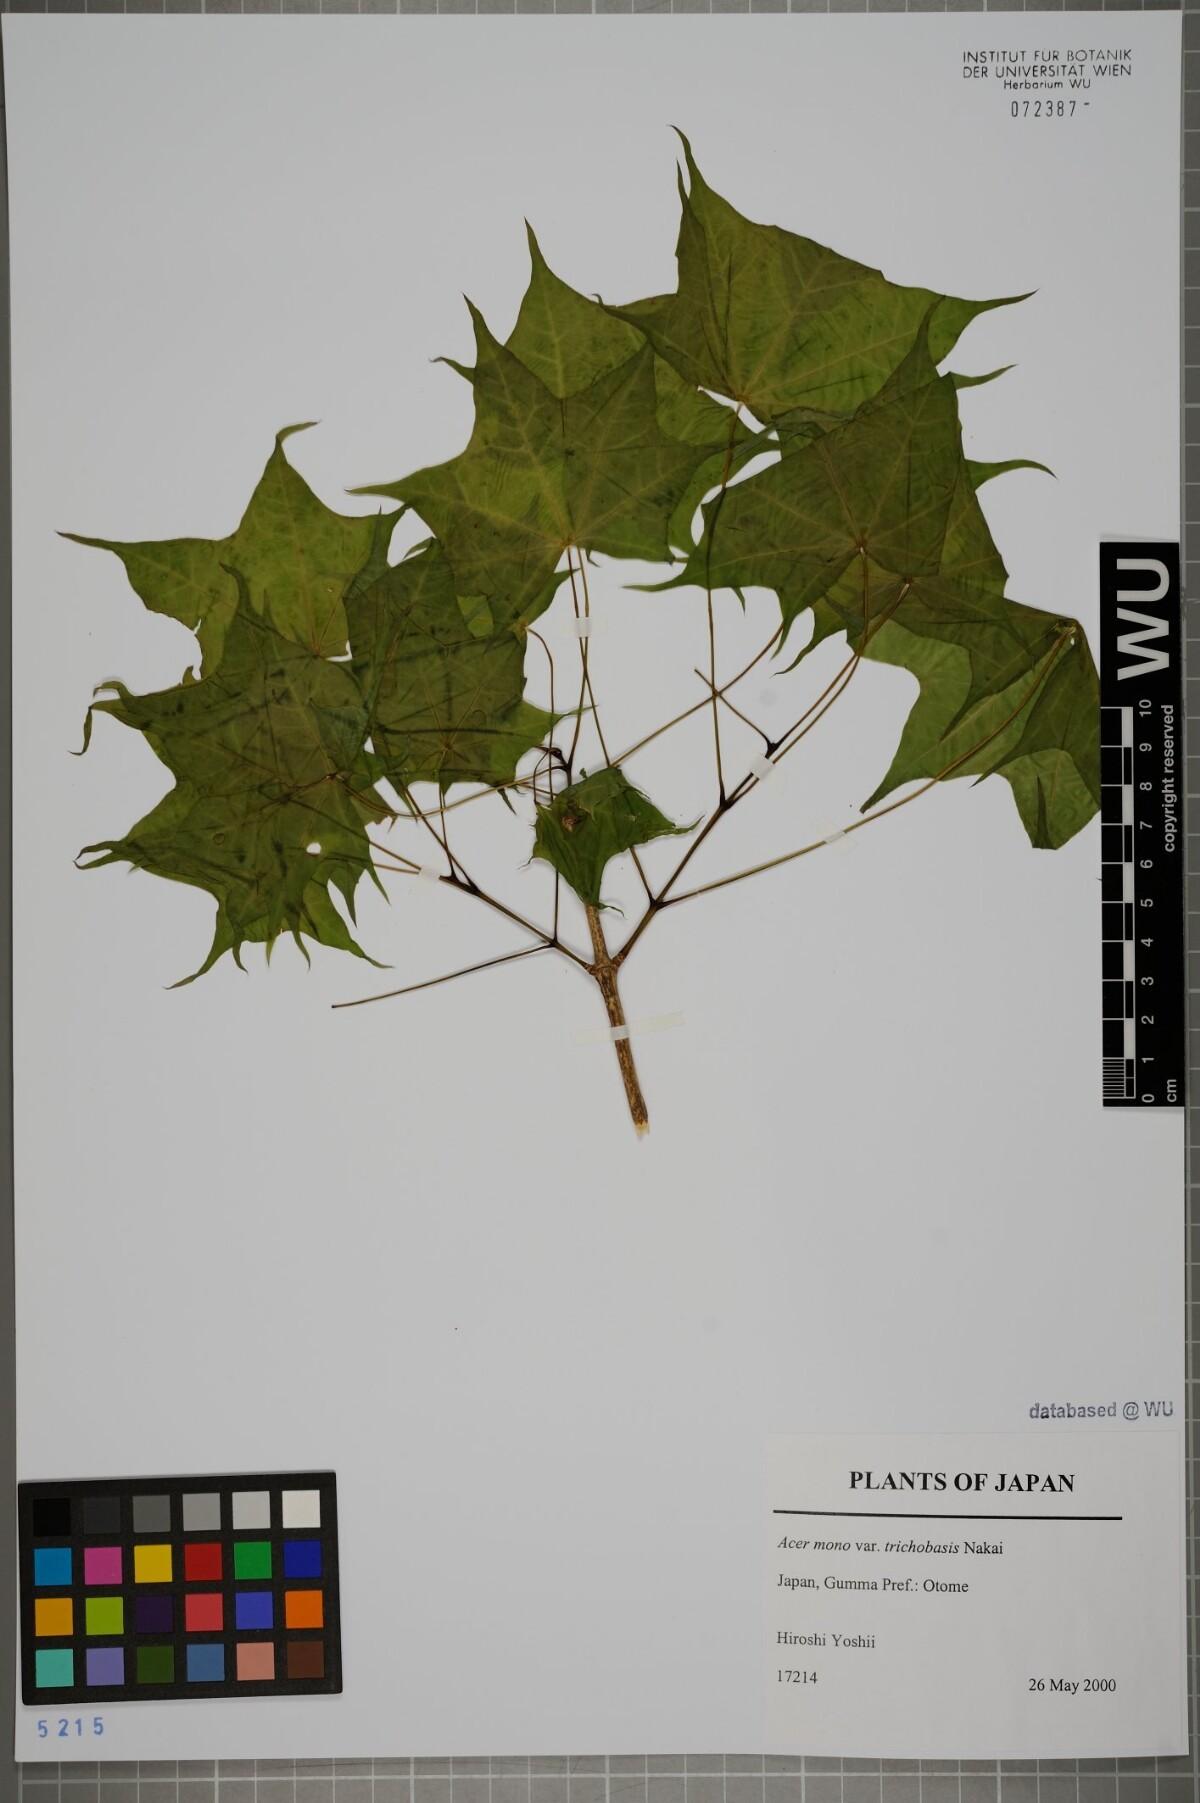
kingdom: Plantae
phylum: Tracheophyta
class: Magnoliopsida
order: Sapindales
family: Sapindaceae
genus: Acer
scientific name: Acer pictum
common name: The painted maple
